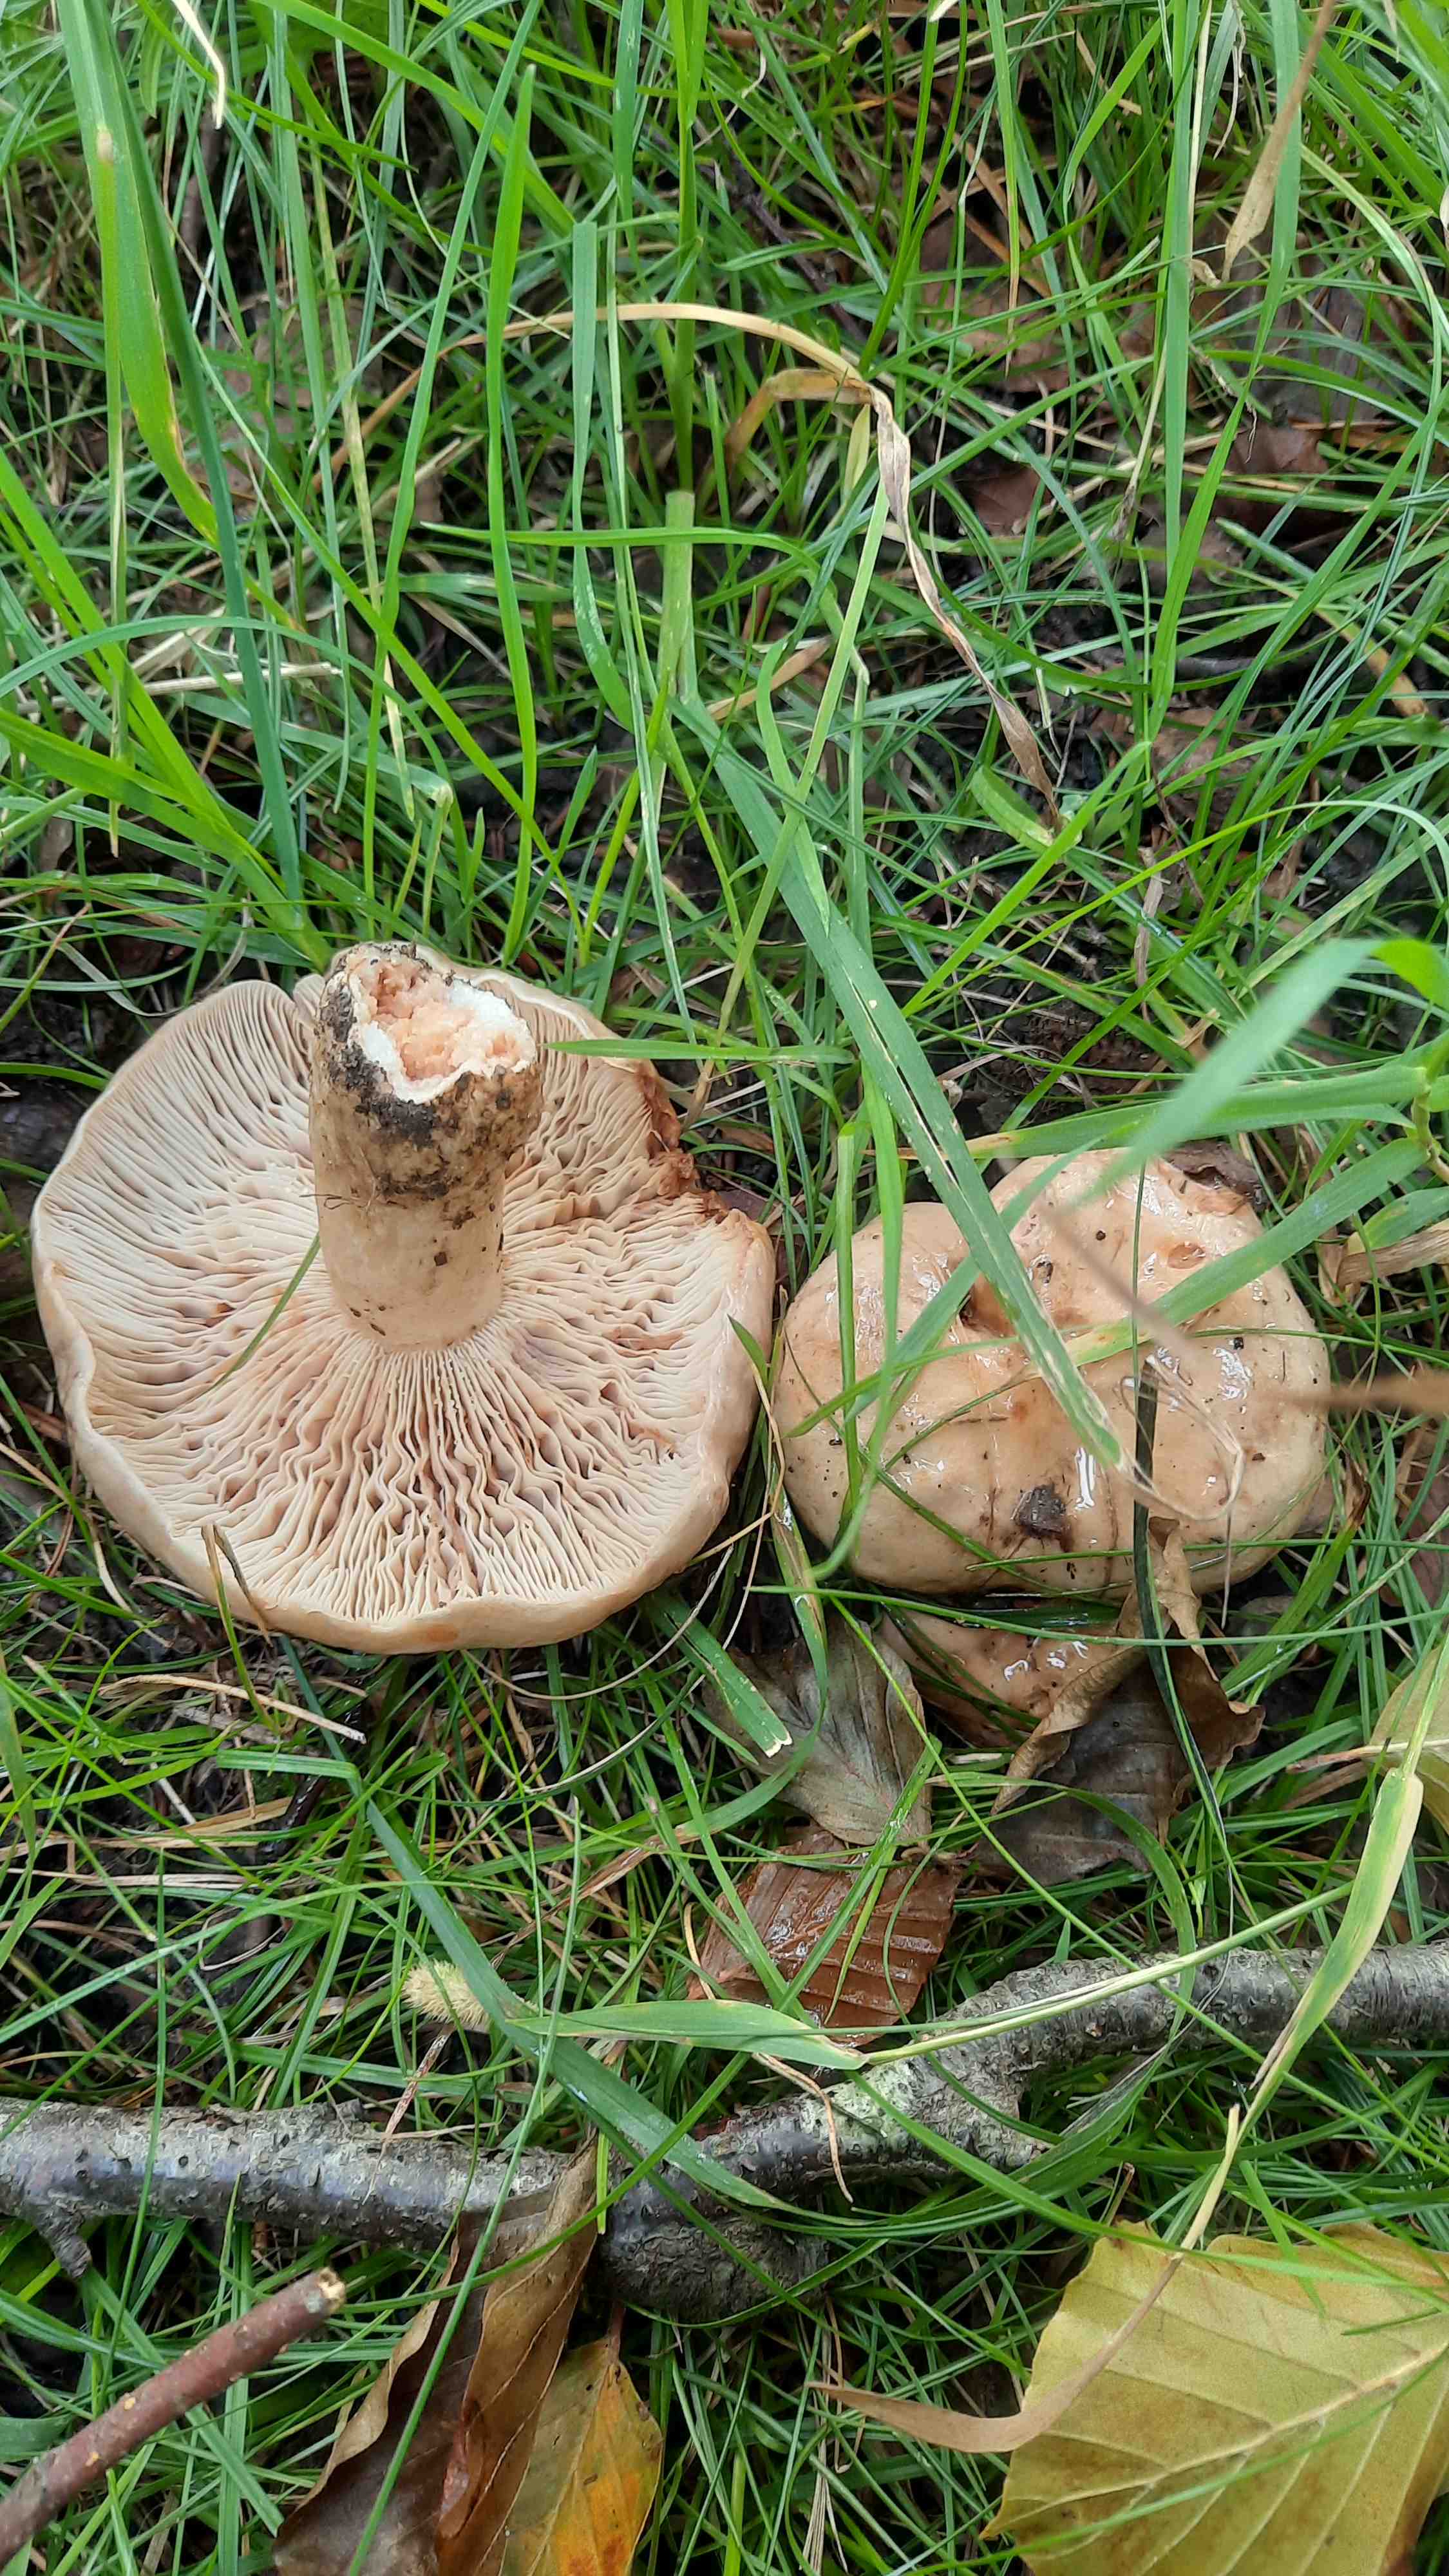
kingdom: Fungi
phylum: Basidiomycota
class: Agaricomycetes
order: Russulales
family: Russulaceae
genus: Lactarius
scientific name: Lactarius pallidus
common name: bleg mælkehat
